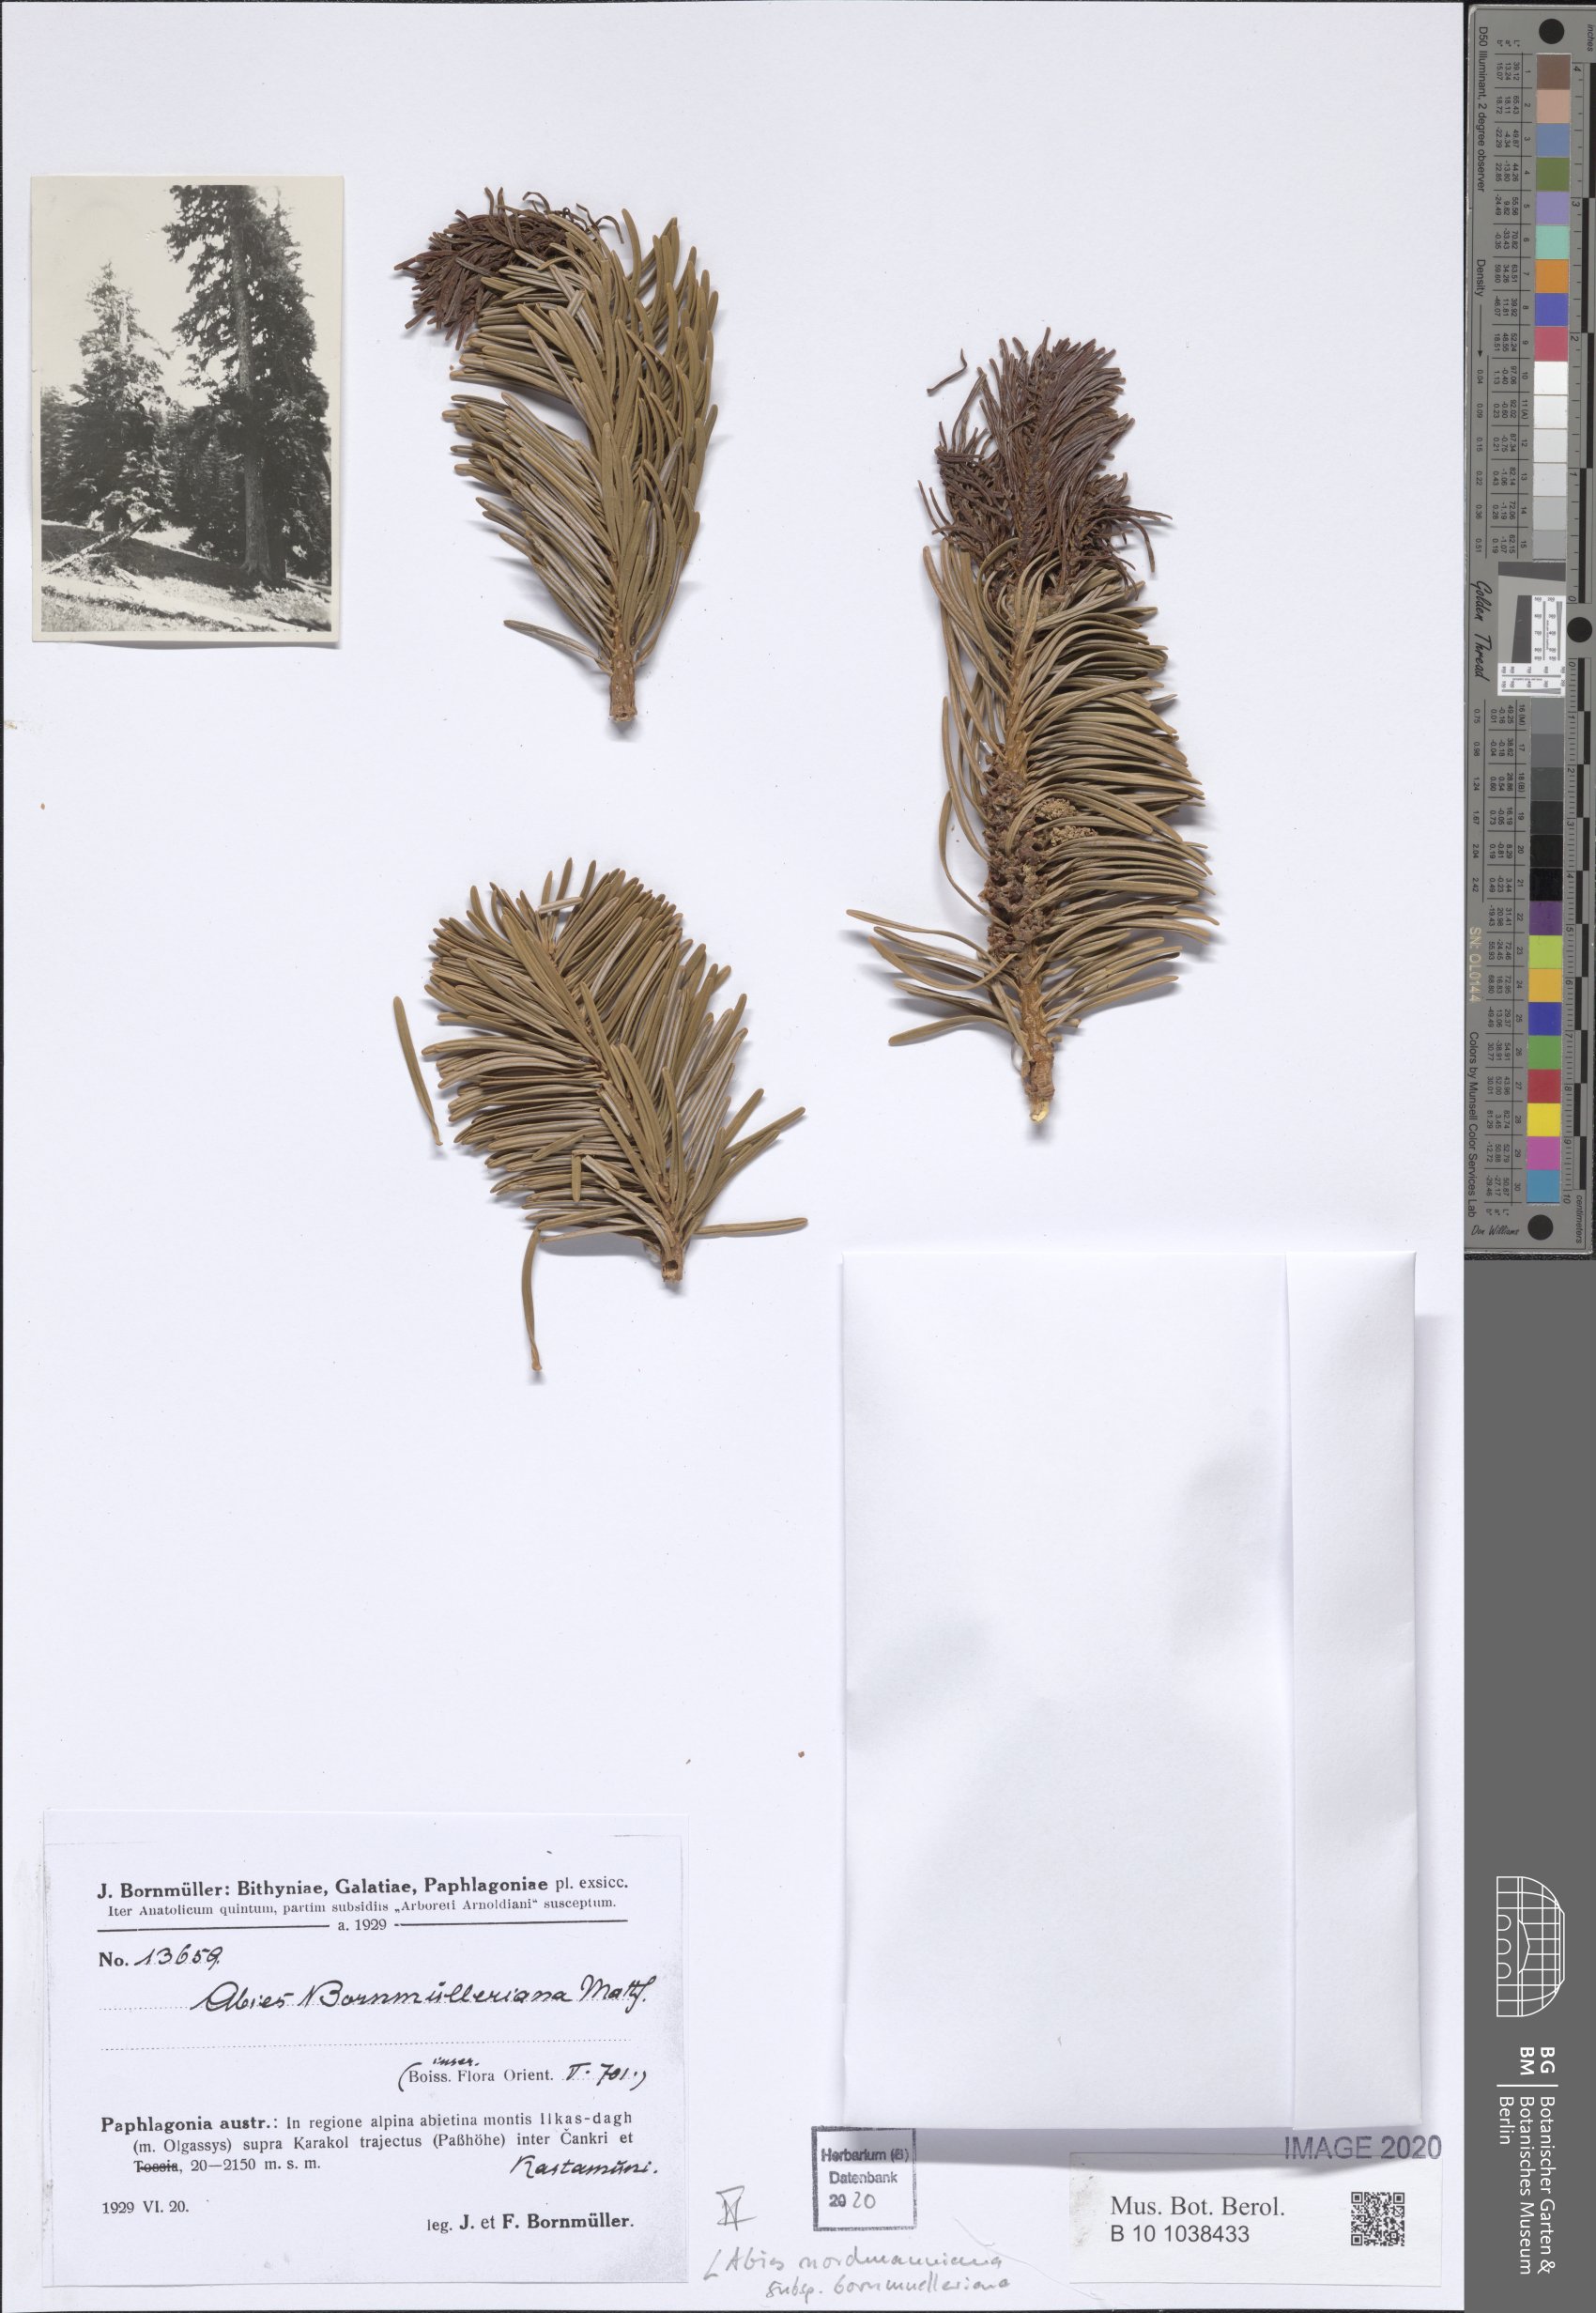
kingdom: Plantae
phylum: Tracheophyta
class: Pinopsida
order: Pinales
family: Pinaceae
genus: Abies
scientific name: Abies nordmanniana
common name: Caucasian fir
